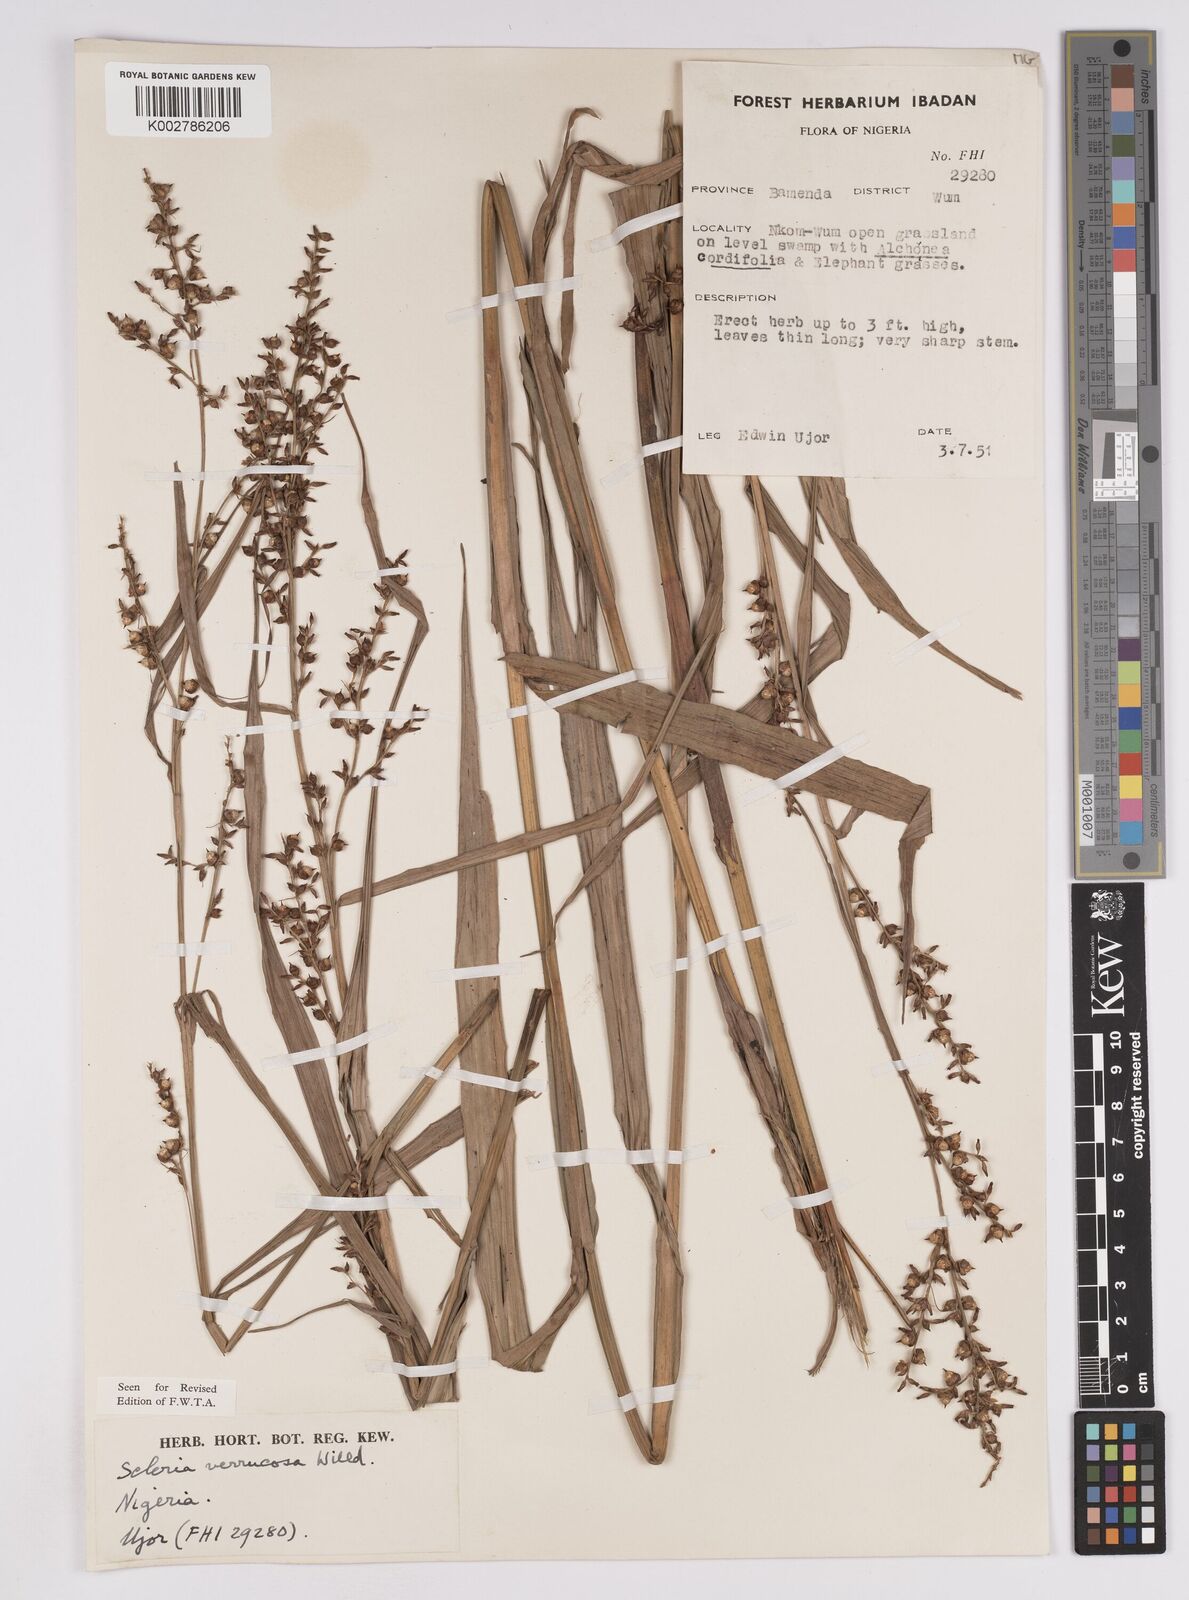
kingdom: Plantae
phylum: Tracheophyta
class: Liliopsida
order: Poales
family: Cyperaceae
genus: Scleria
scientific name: Scleria verrucosa
